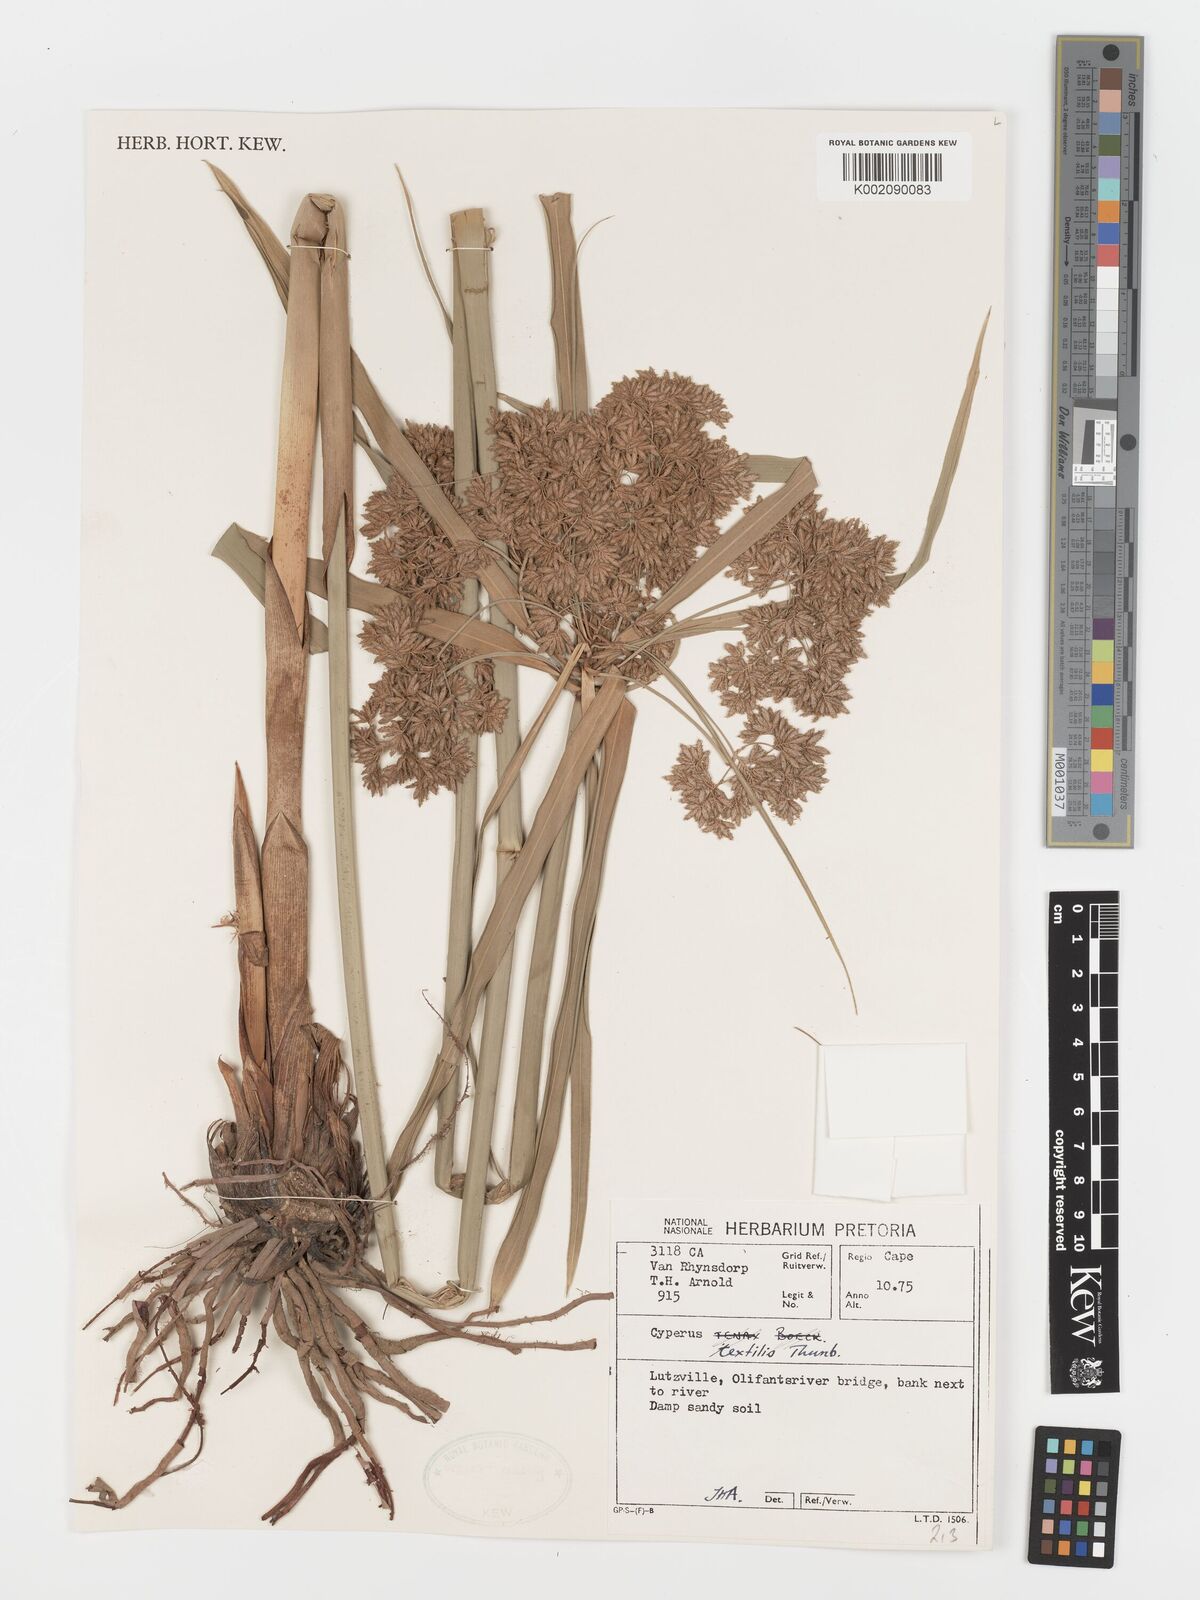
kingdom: Plantae
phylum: Tracheophyta
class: Liliopsida
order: Poales
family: Cyperaceae
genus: Cyperus
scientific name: Cyperus alternifolius
